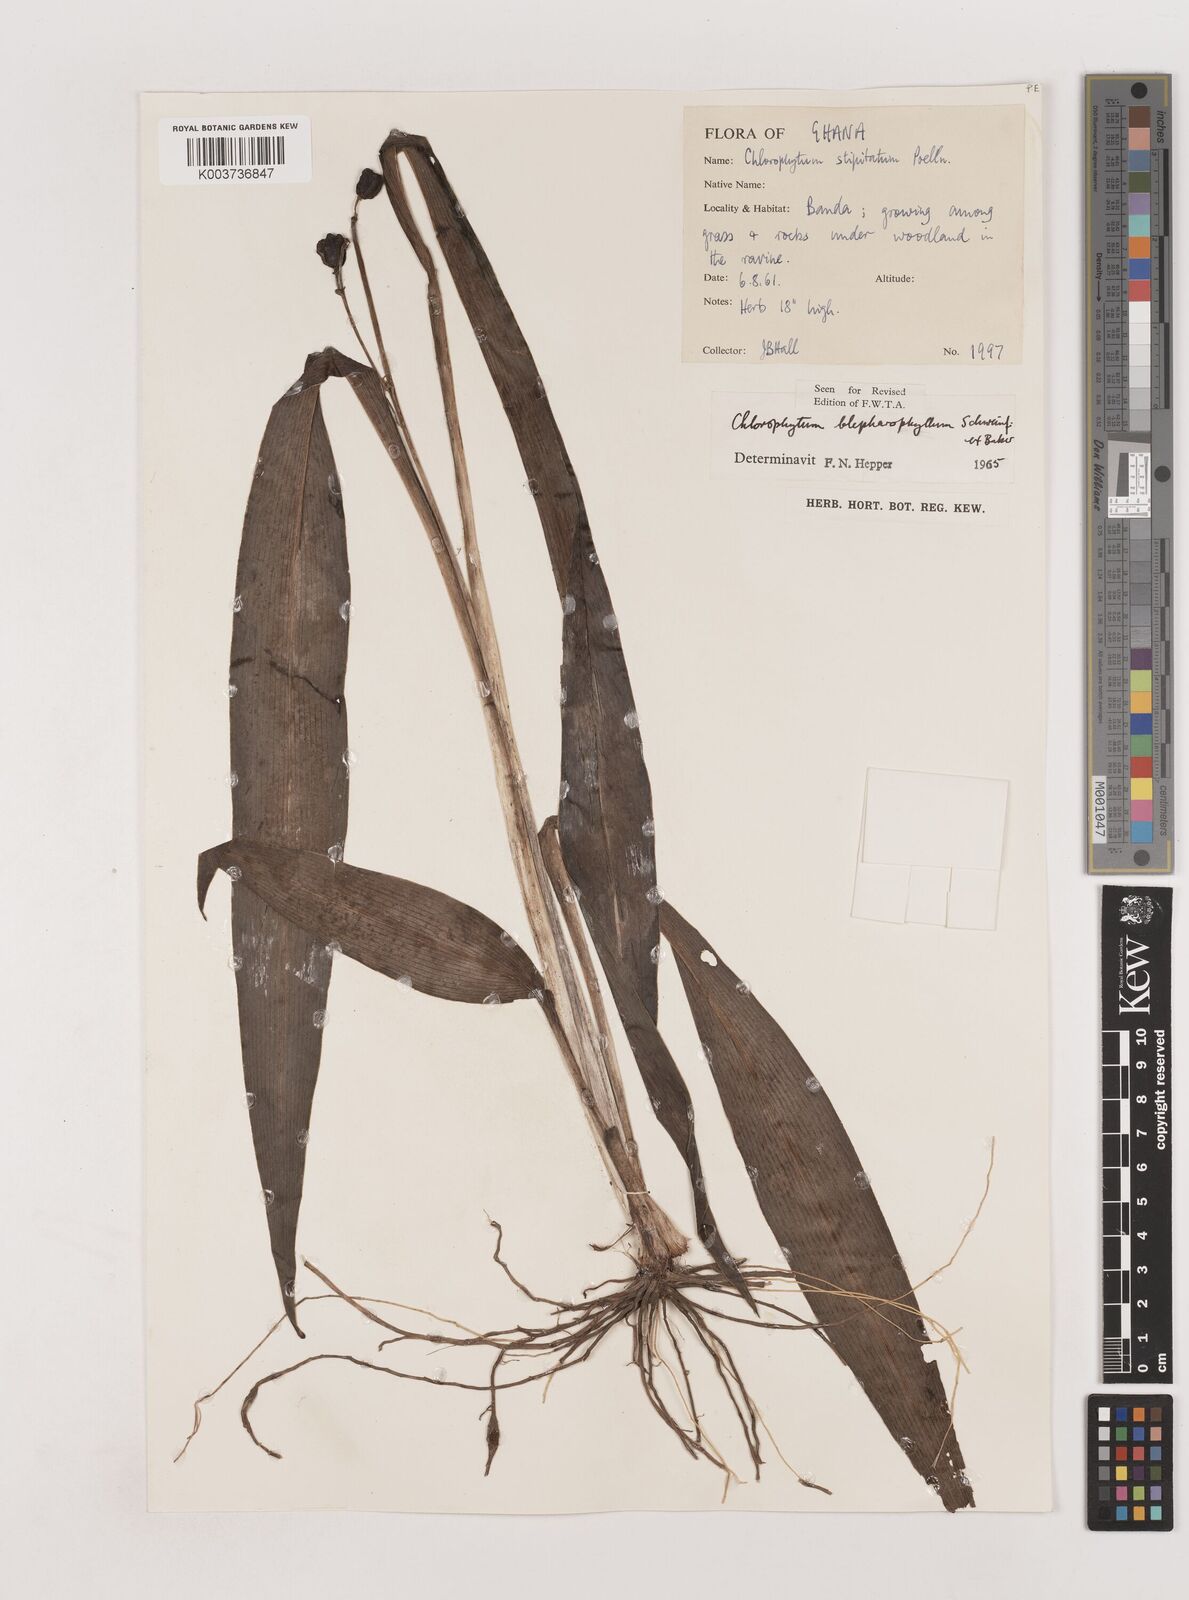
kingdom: Plantae
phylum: Tracheophyta
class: Liliopsida
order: Asparagales
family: Asparagaceae
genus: Chlorophytum
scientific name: Chlorophytum blepharophyllum
